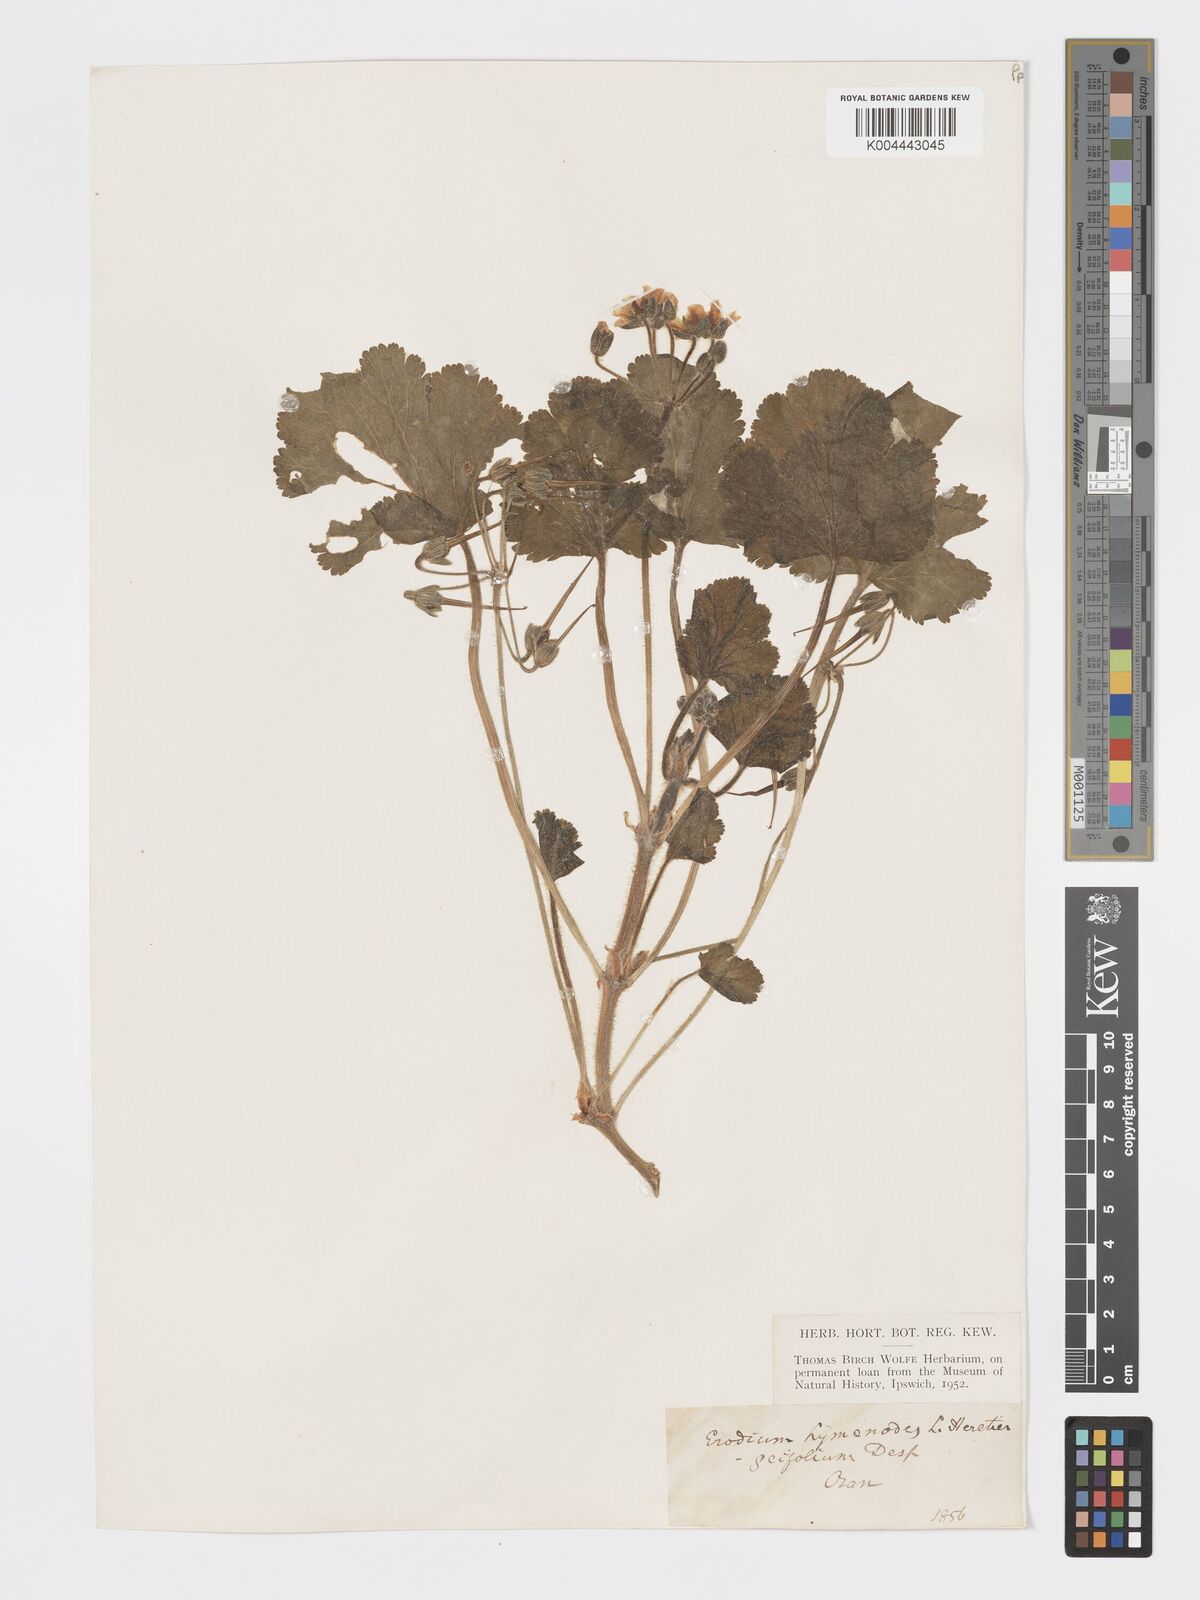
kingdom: Plantae
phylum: Tracheophyta
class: Magnoliopsida
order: Geraniales
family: Geraniaceae
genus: Erodium
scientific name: Erodium trifolium
